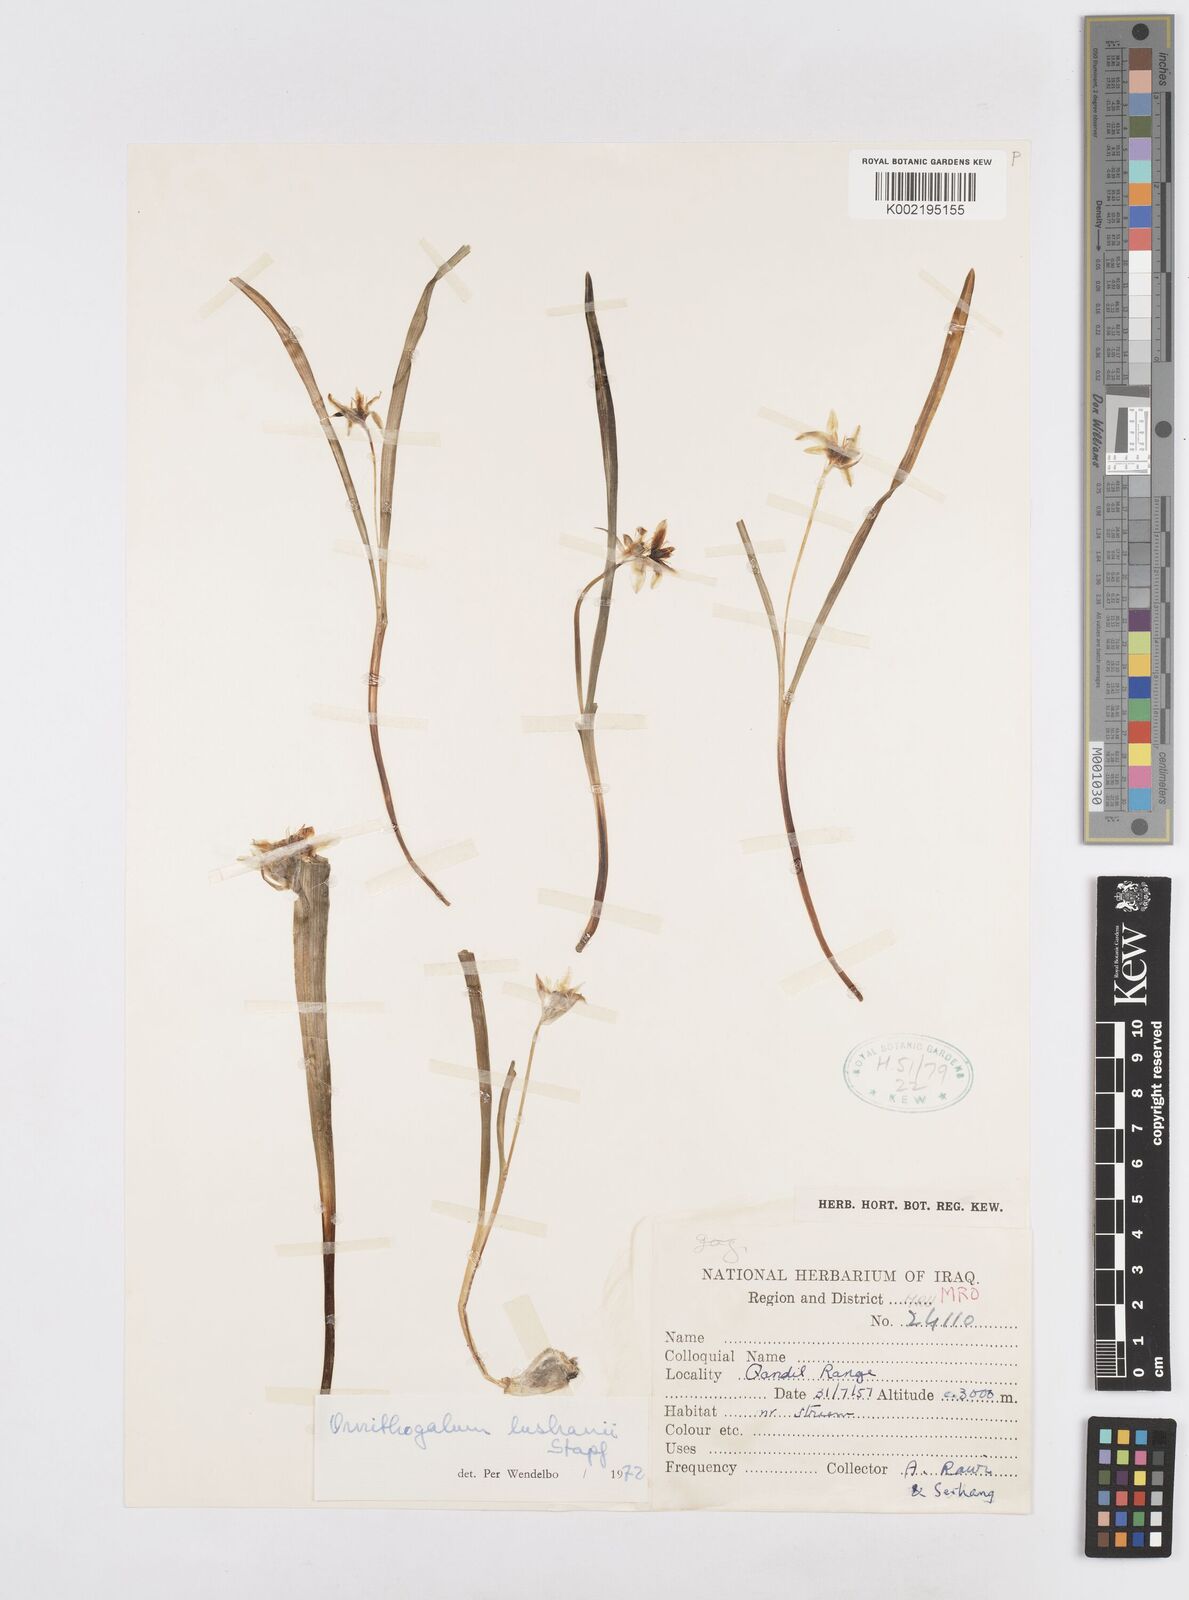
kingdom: Plantae
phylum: Tracheophyta
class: Liliopsida
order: Asparagales
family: Asparagaceae
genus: Ornithogalum
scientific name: Ornithogalum luschanii
